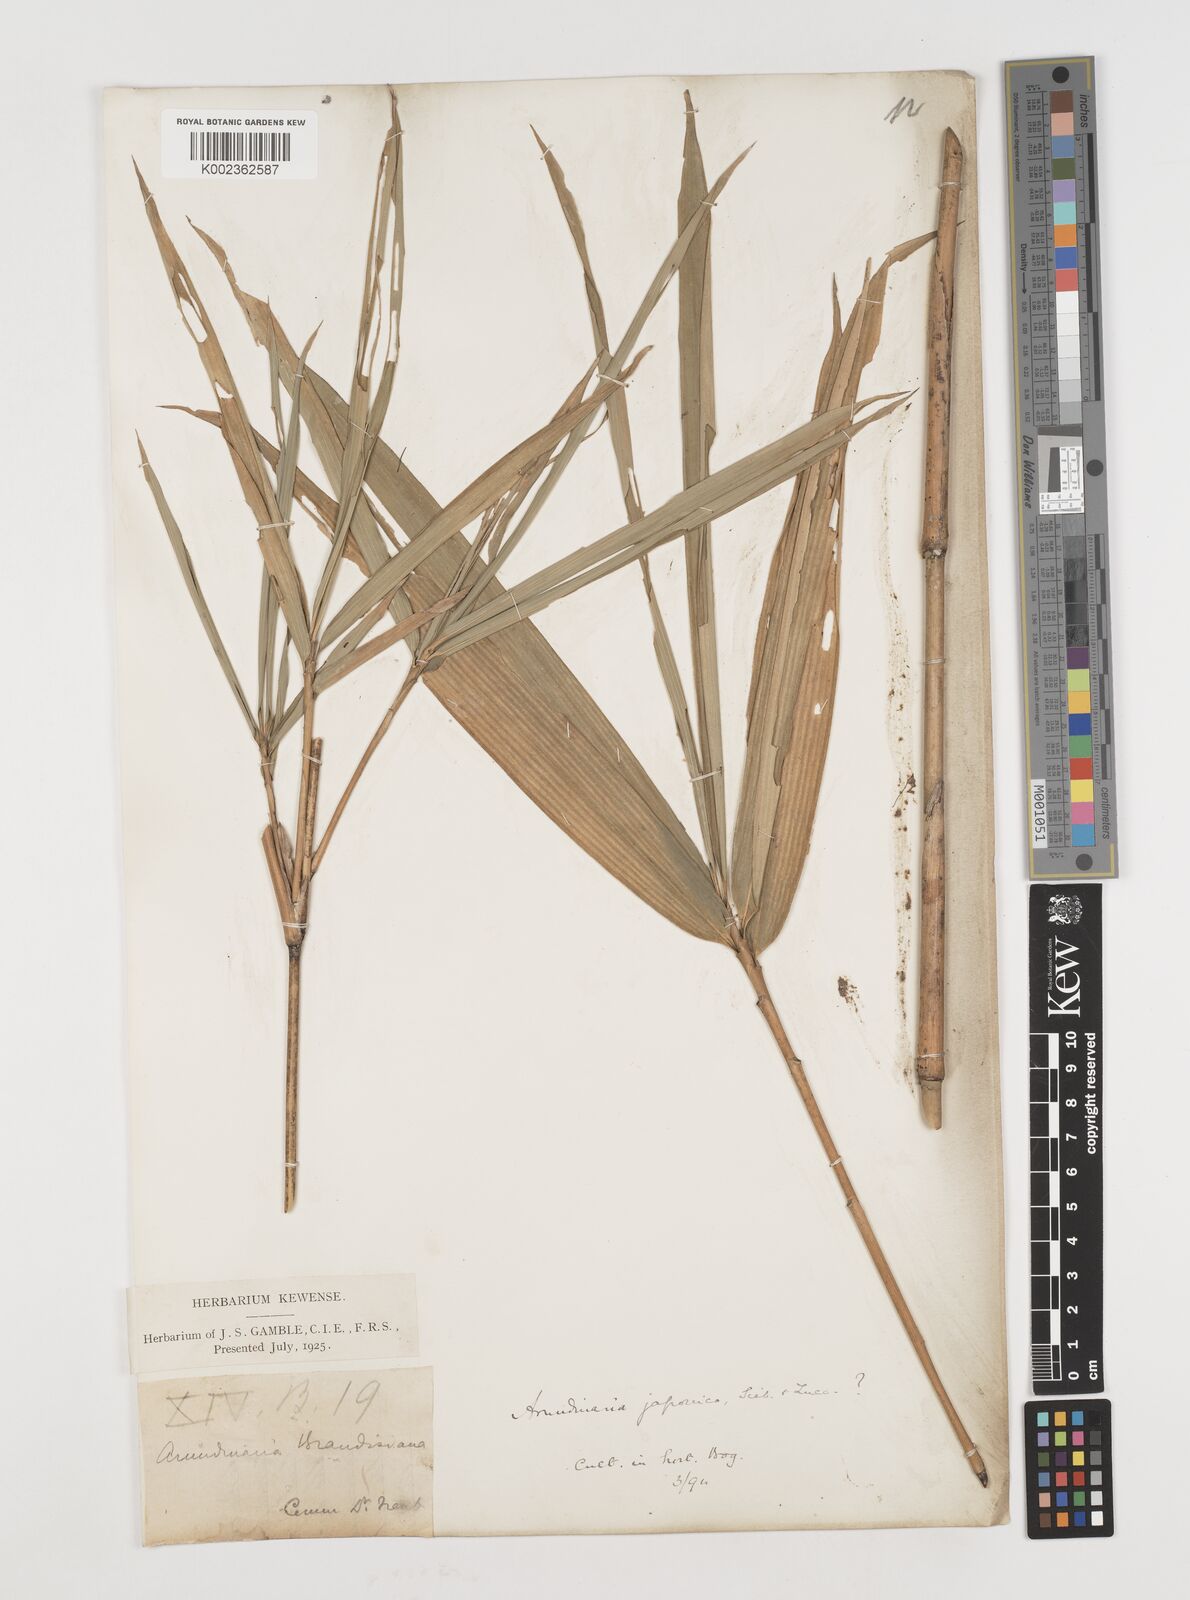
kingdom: Plantae
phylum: Tracheophyta
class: Liliopsida
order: Poales
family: Poaceae
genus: Pseudosasa
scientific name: Pseudosasa japonica
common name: Arrow bamboo
